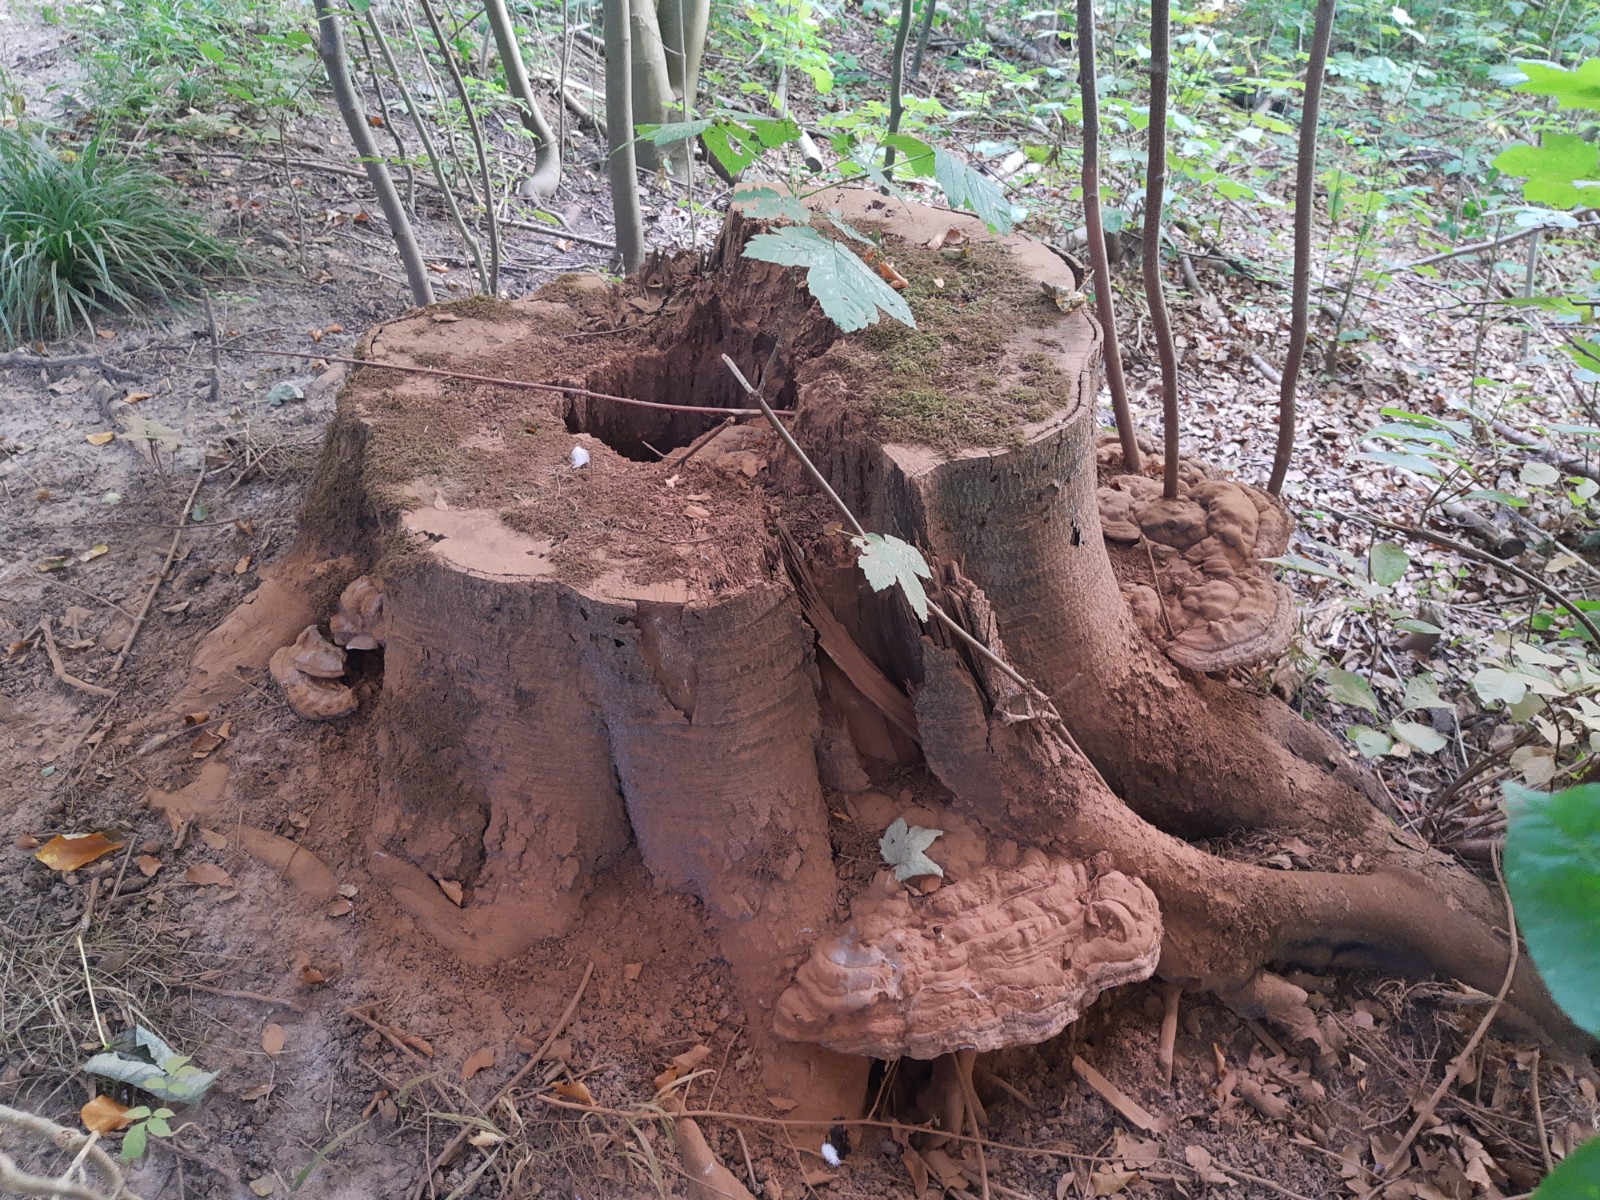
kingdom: Fungi
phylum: Basidiomycota
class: Agaricomycetes
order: Polyporales
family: Polyporaceae
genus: Ganoderma
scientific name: Ganoderma pfeifferi
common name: kobberrød lakporesvamp
